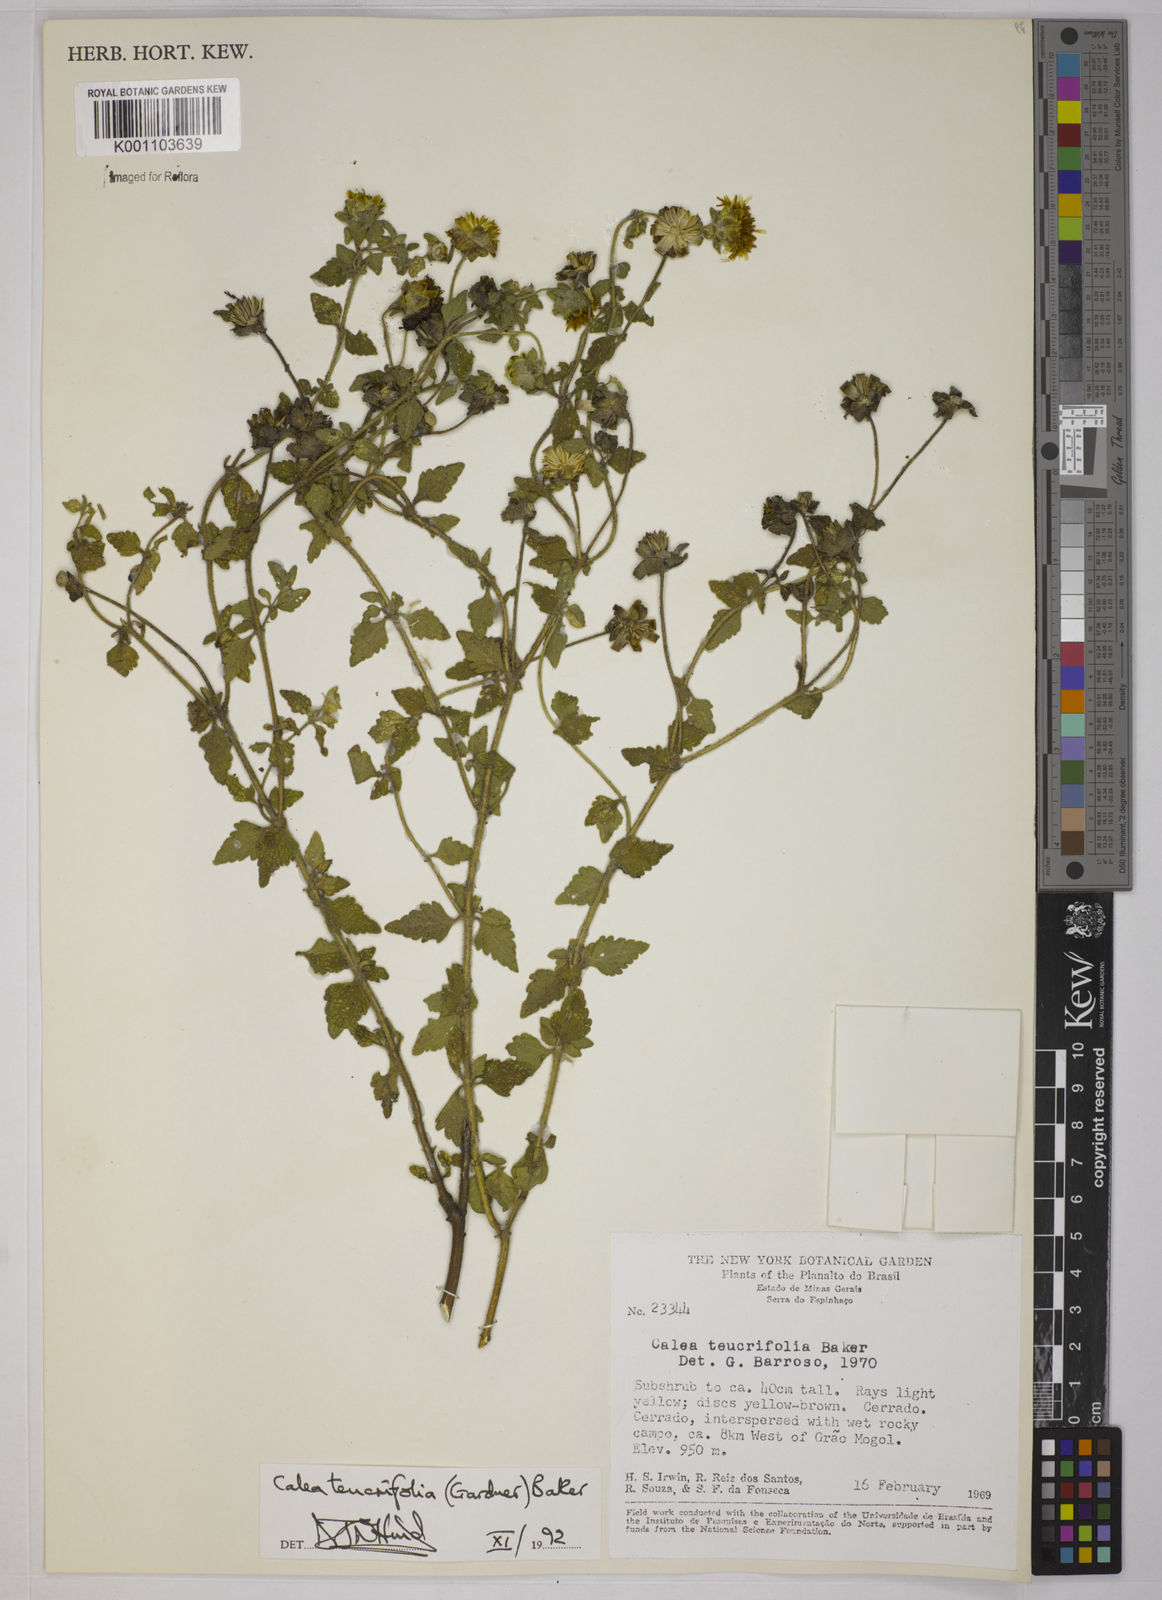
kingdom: Plantae
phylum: Tracheophyta
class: Magnoliopsida
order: Asterales
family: Asteraceae
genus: Calea
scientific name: Calea teucriifolia
